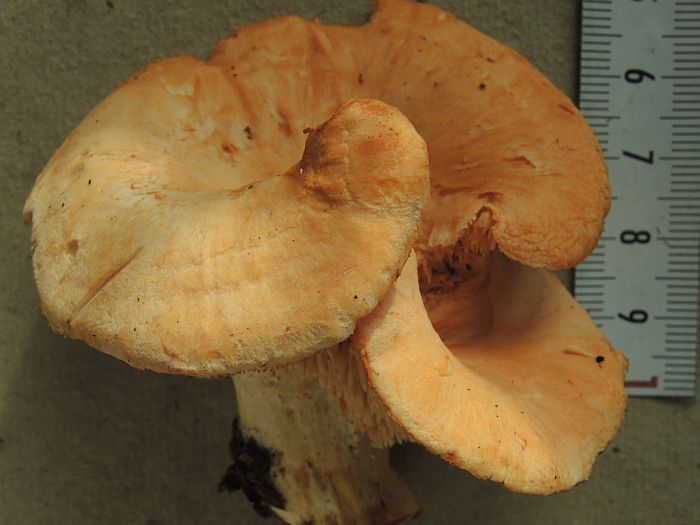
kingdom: Fungi
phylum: Basidiomycota
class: Agaricomycetes
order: Cantharellales
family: Hydnaceae
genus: Hydnum
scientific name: Hydnum umbilicatum
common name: navle-pigsvamp
